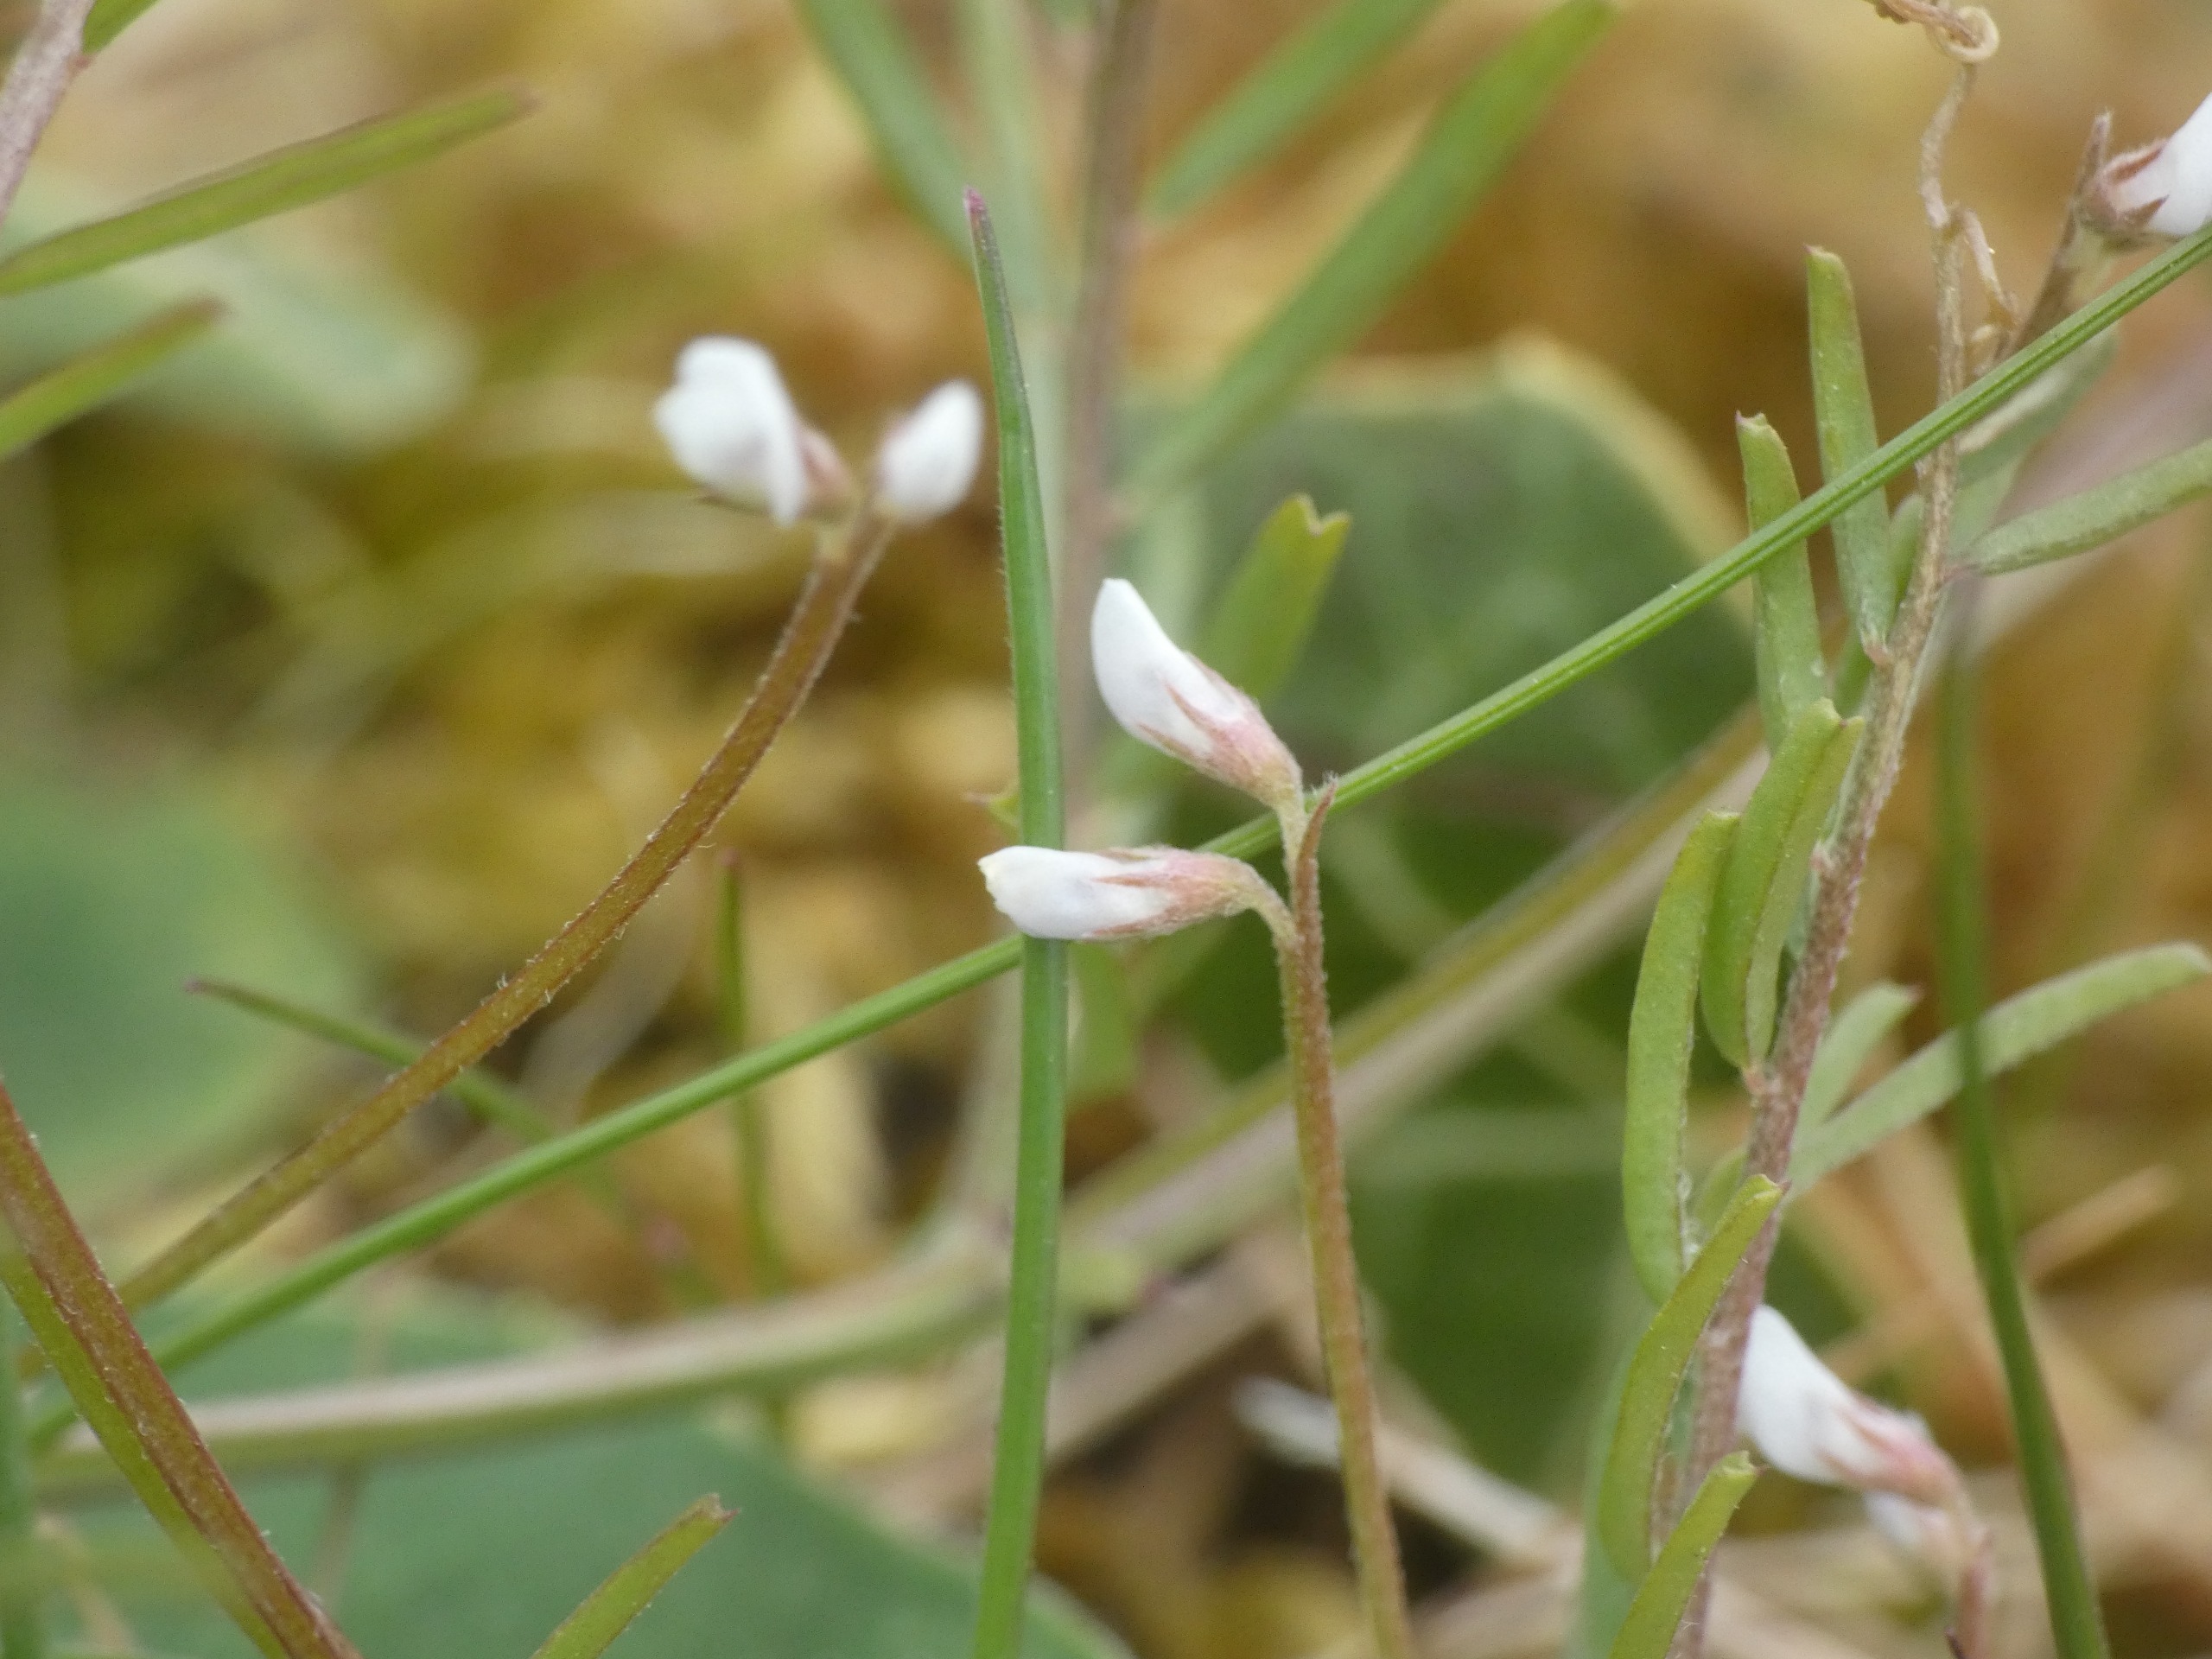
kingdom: Plantae
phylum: Tracheophyta
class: Magnoliopsida
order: Fabales
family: Fabaceae
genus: Vicia
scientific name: Vicia hirsuta
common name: Tofrøet vikke
